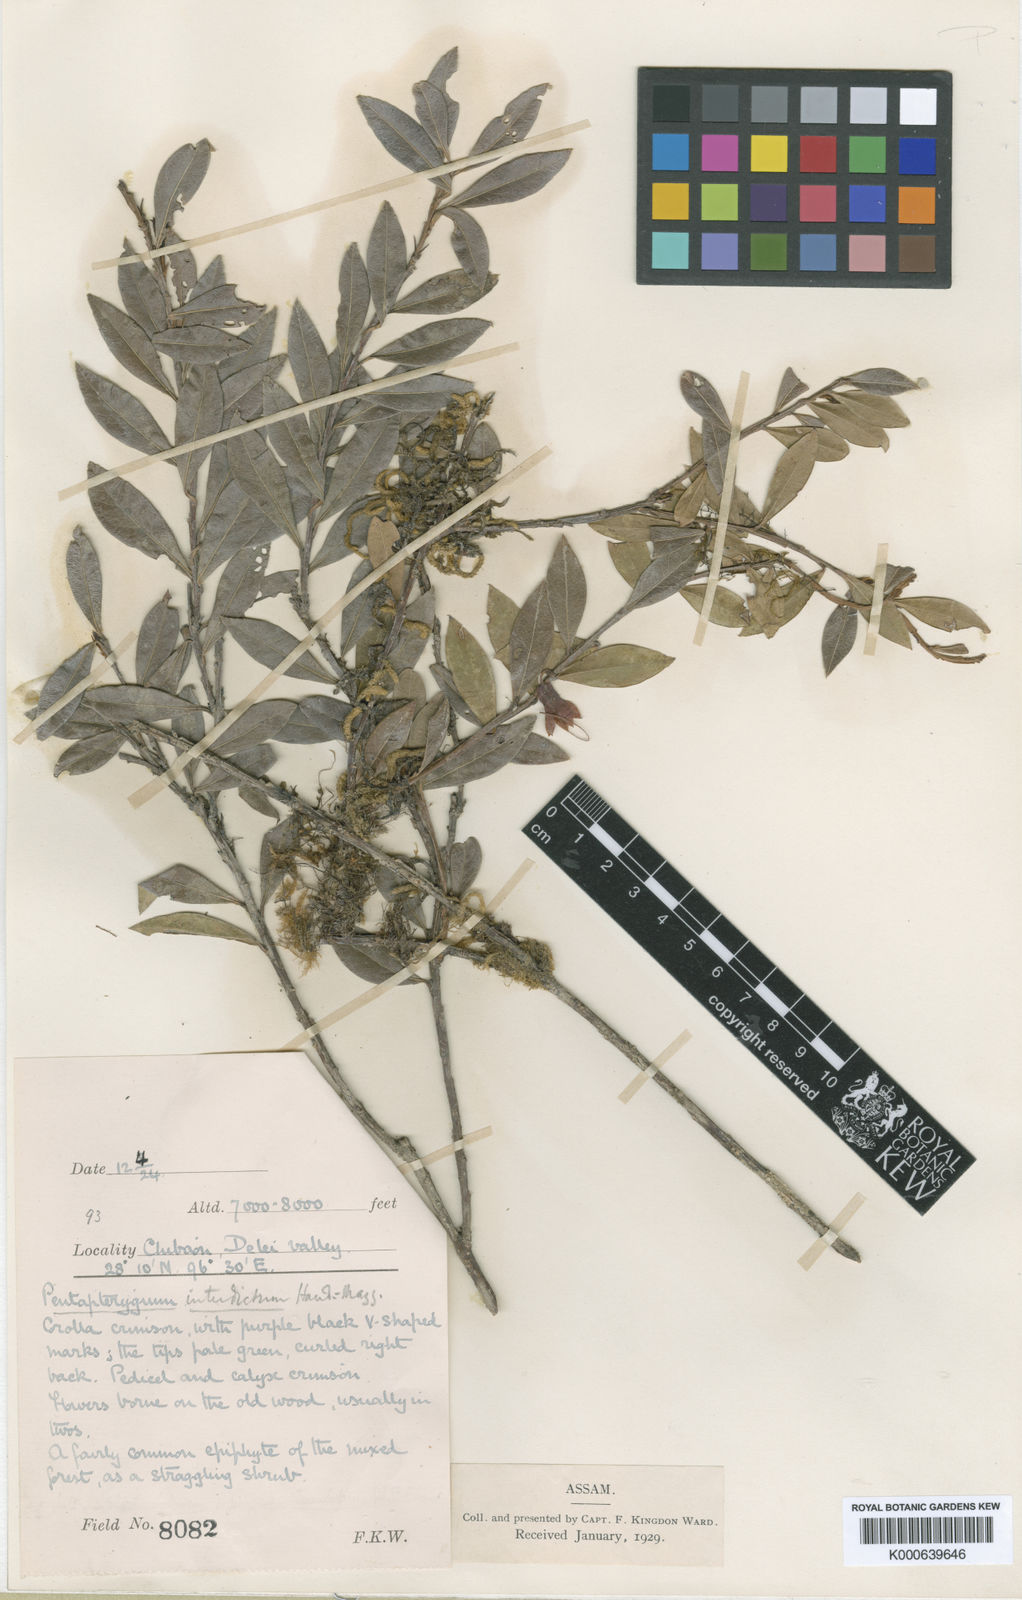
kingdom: Plantae
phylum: Tracheophyta
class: Magnoliopsida
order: Ericales
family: Ericaceae
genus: Agapetes
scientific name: Agapetes interdicta
